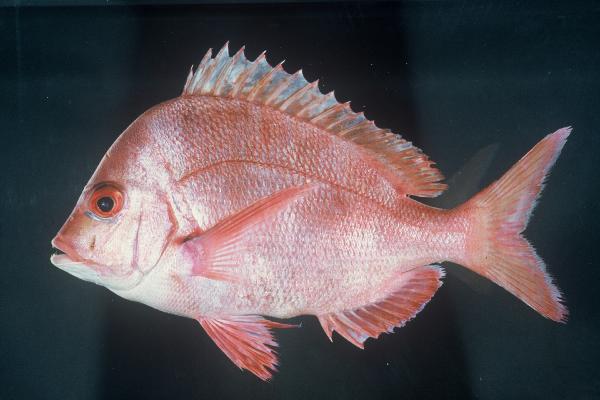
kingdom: Animalia
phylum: Chordata
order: Perciformes
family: Sparidae
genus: Chrysoblephus
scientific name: Chrysoblephus puniceus
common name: Slinger seabream
